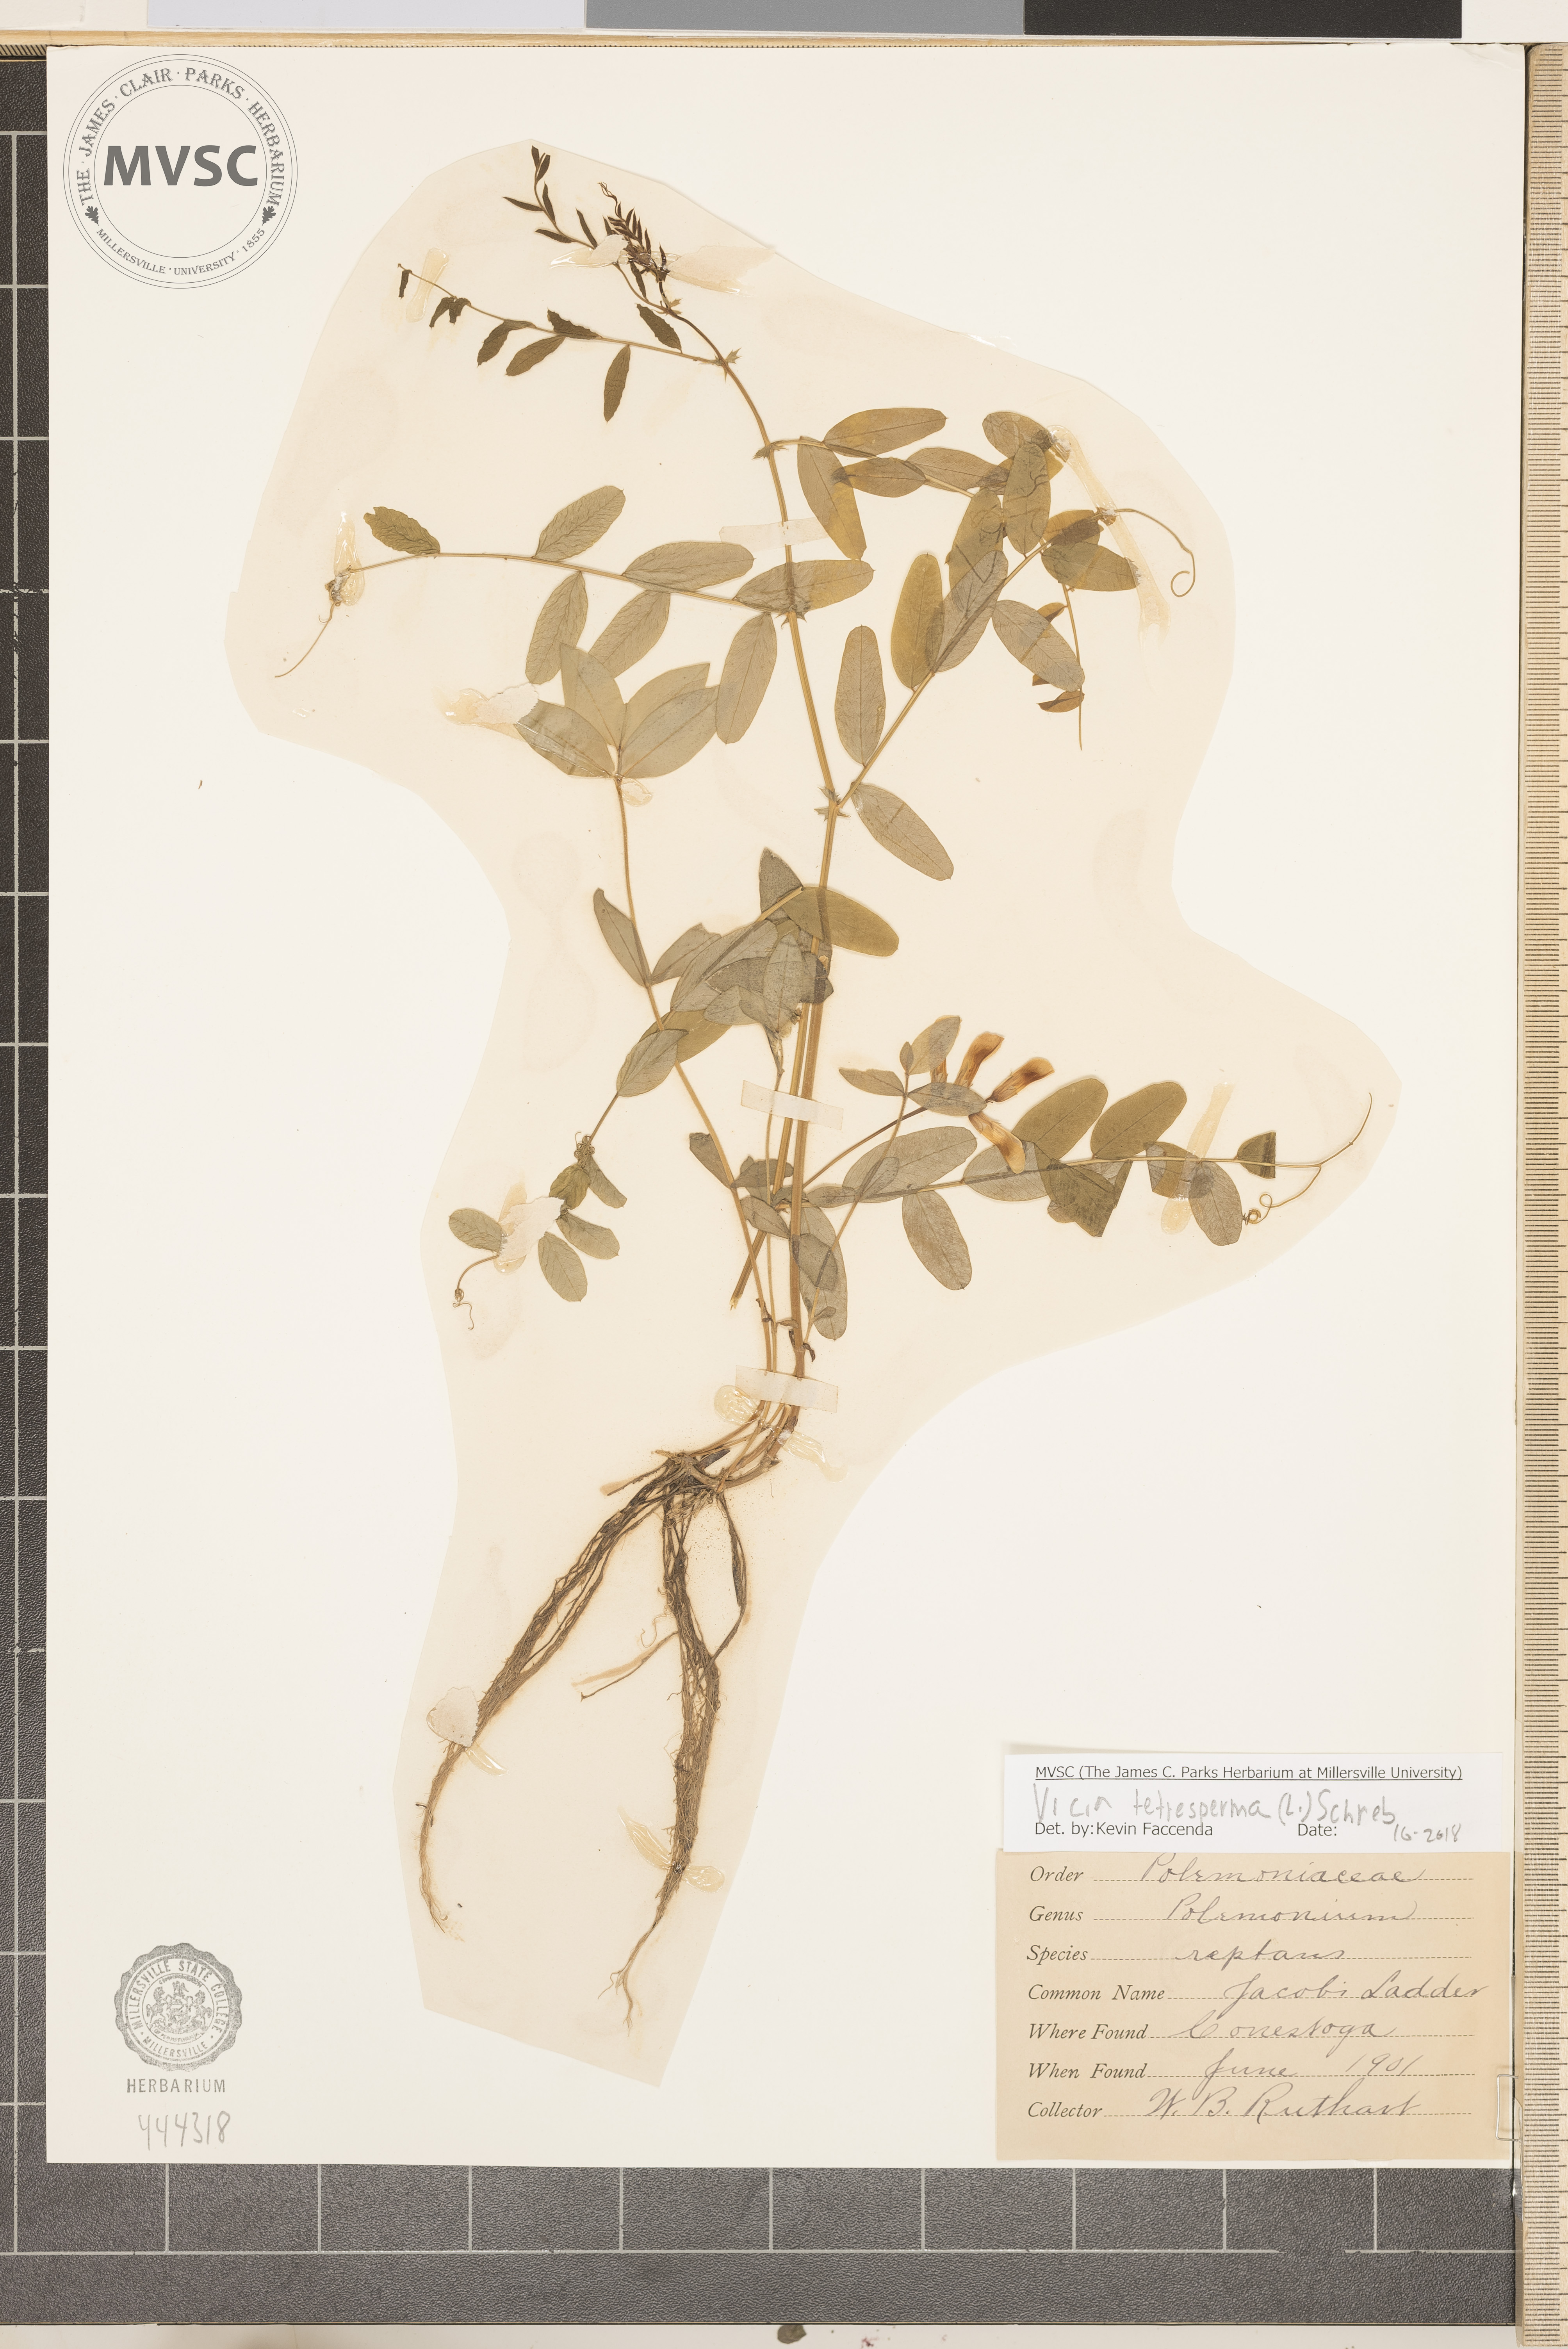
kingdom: Plantae
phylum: Tracheophyta
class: Magnoliopsida
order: Fabales
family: Fabaceae
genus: Vicia
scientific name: Vicia americana
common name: American vetch
